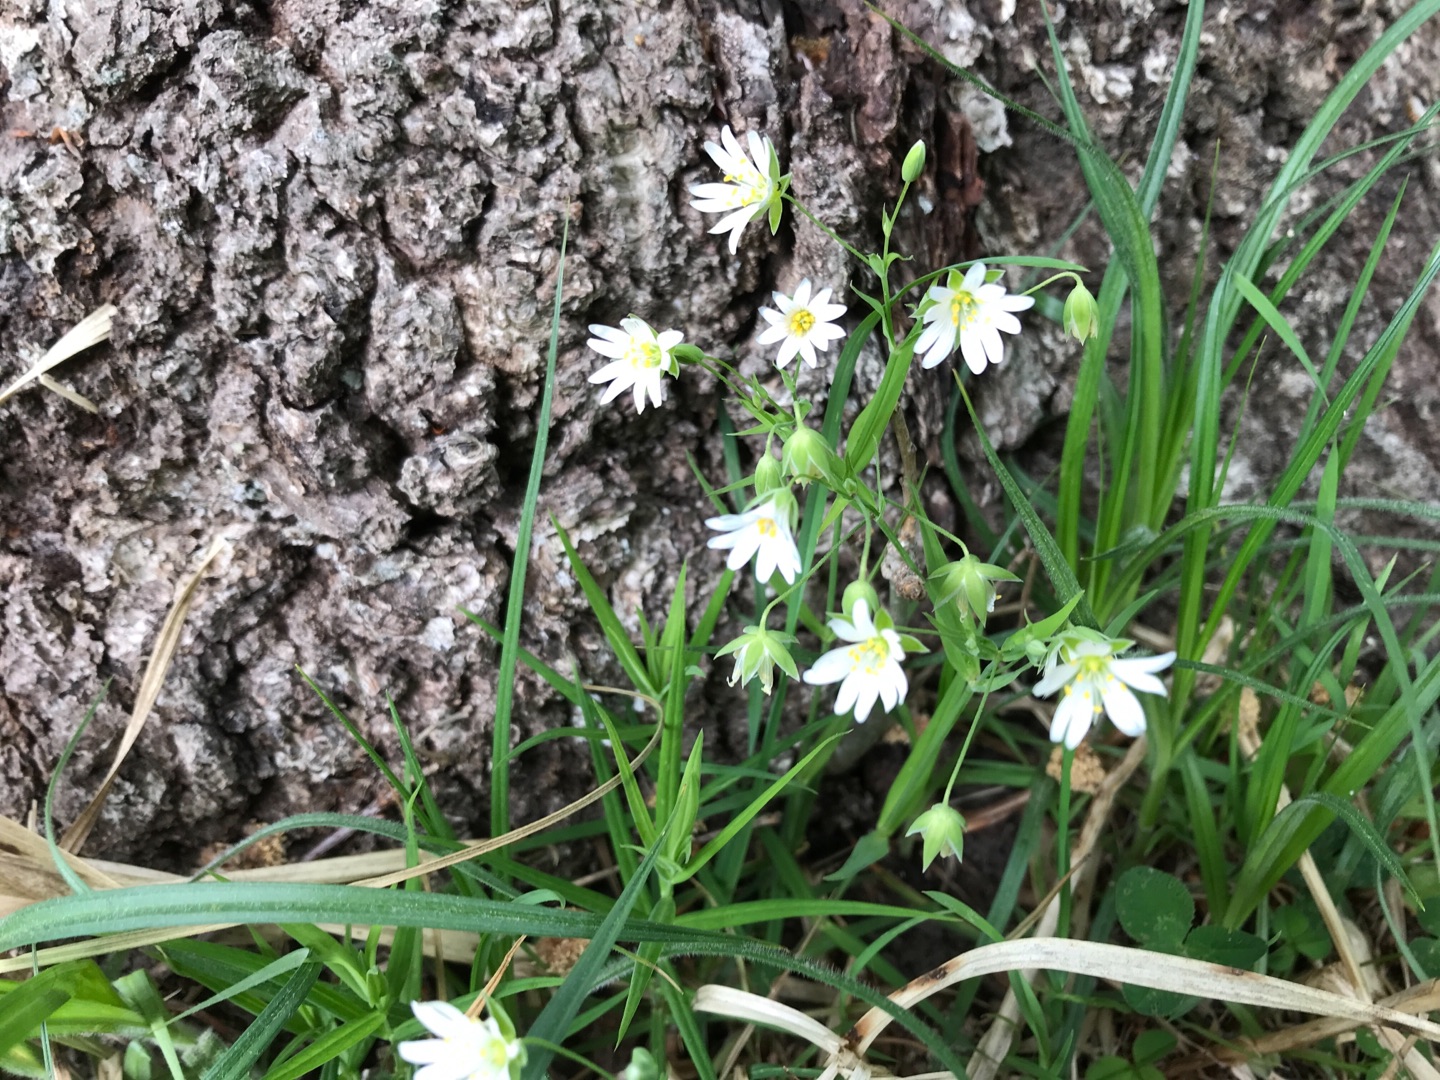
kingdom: Plantae
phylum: Tracheophyta
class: Magnoliopsida
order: Caryophyllales
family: Caryophyllaceae
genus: Rabelera
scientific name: Rabelera holostea
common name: Stor fladstjerne
